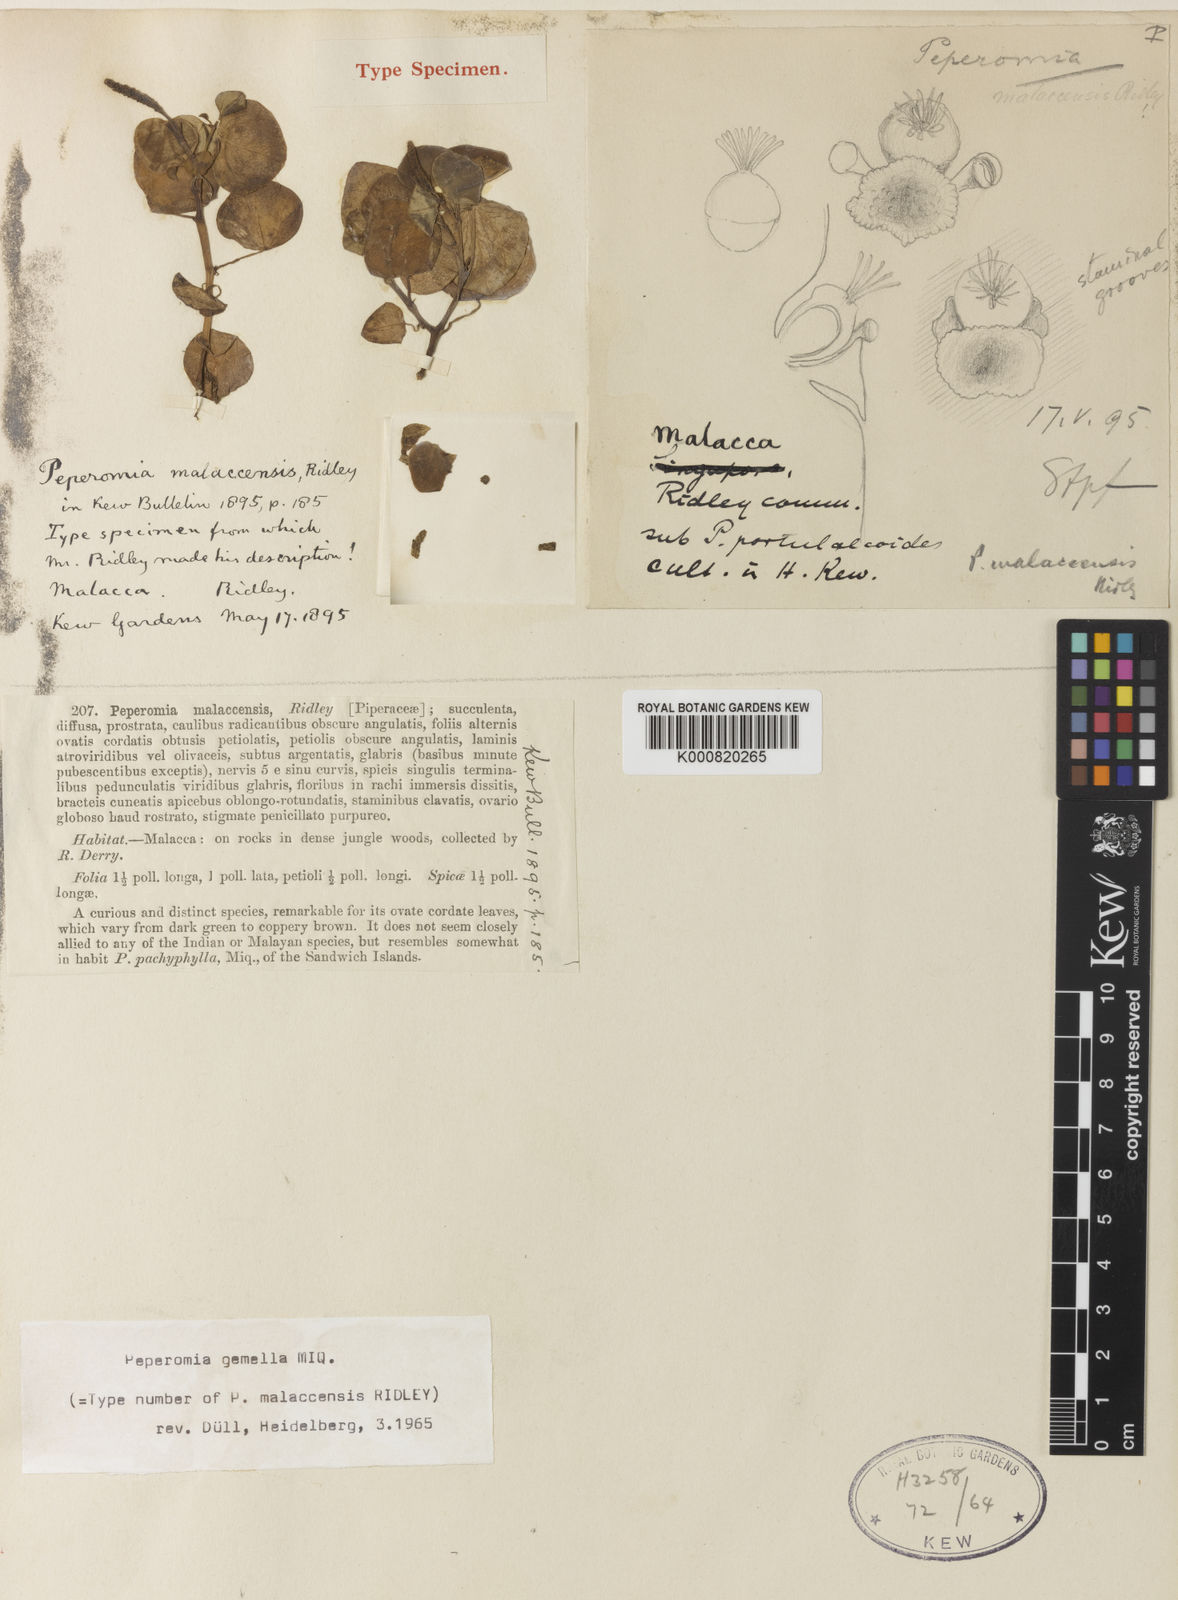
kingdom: Plantae
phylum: Tracheophyta
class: Magnoliopsida
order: Piperales
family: Piperaceae
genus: Peperomia
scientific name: Peperomia gemella
